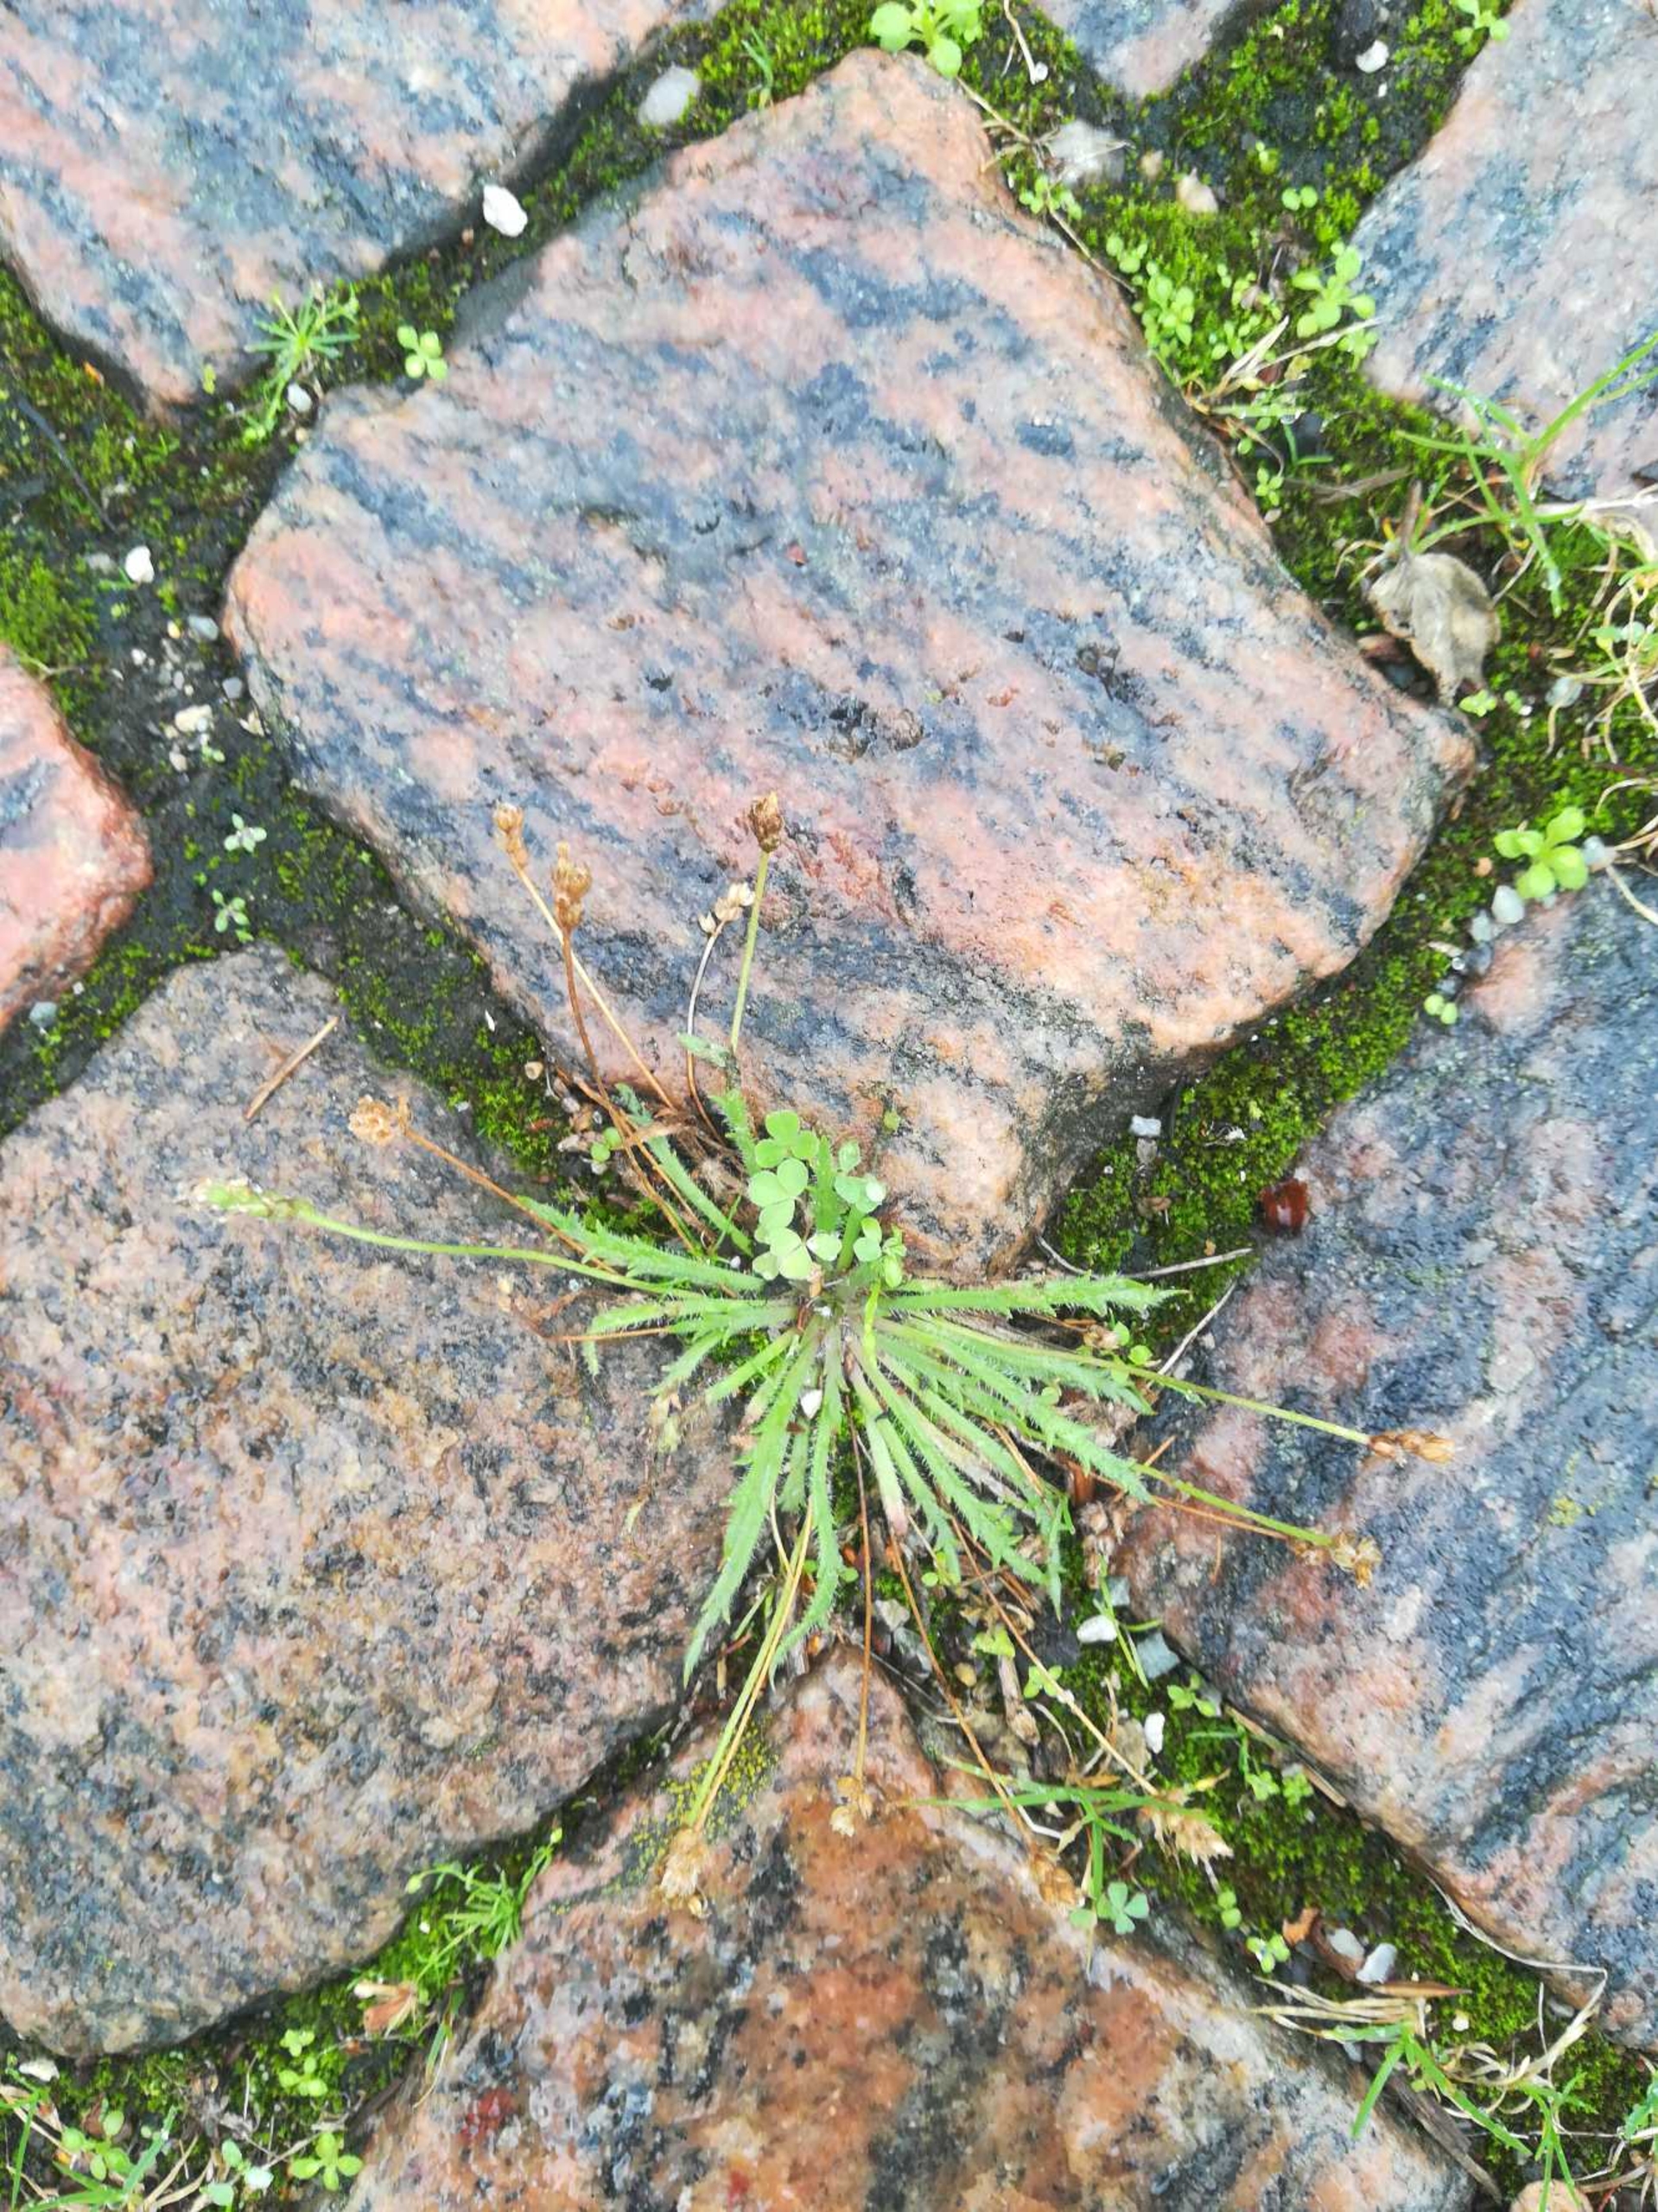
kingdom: Plantae
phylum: Tracheophyta
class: Magnoliopsida
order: Lamiales
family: Plantaginaceae
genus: Plantago
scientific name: Plantago coronopus
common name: Fliget vejbred
